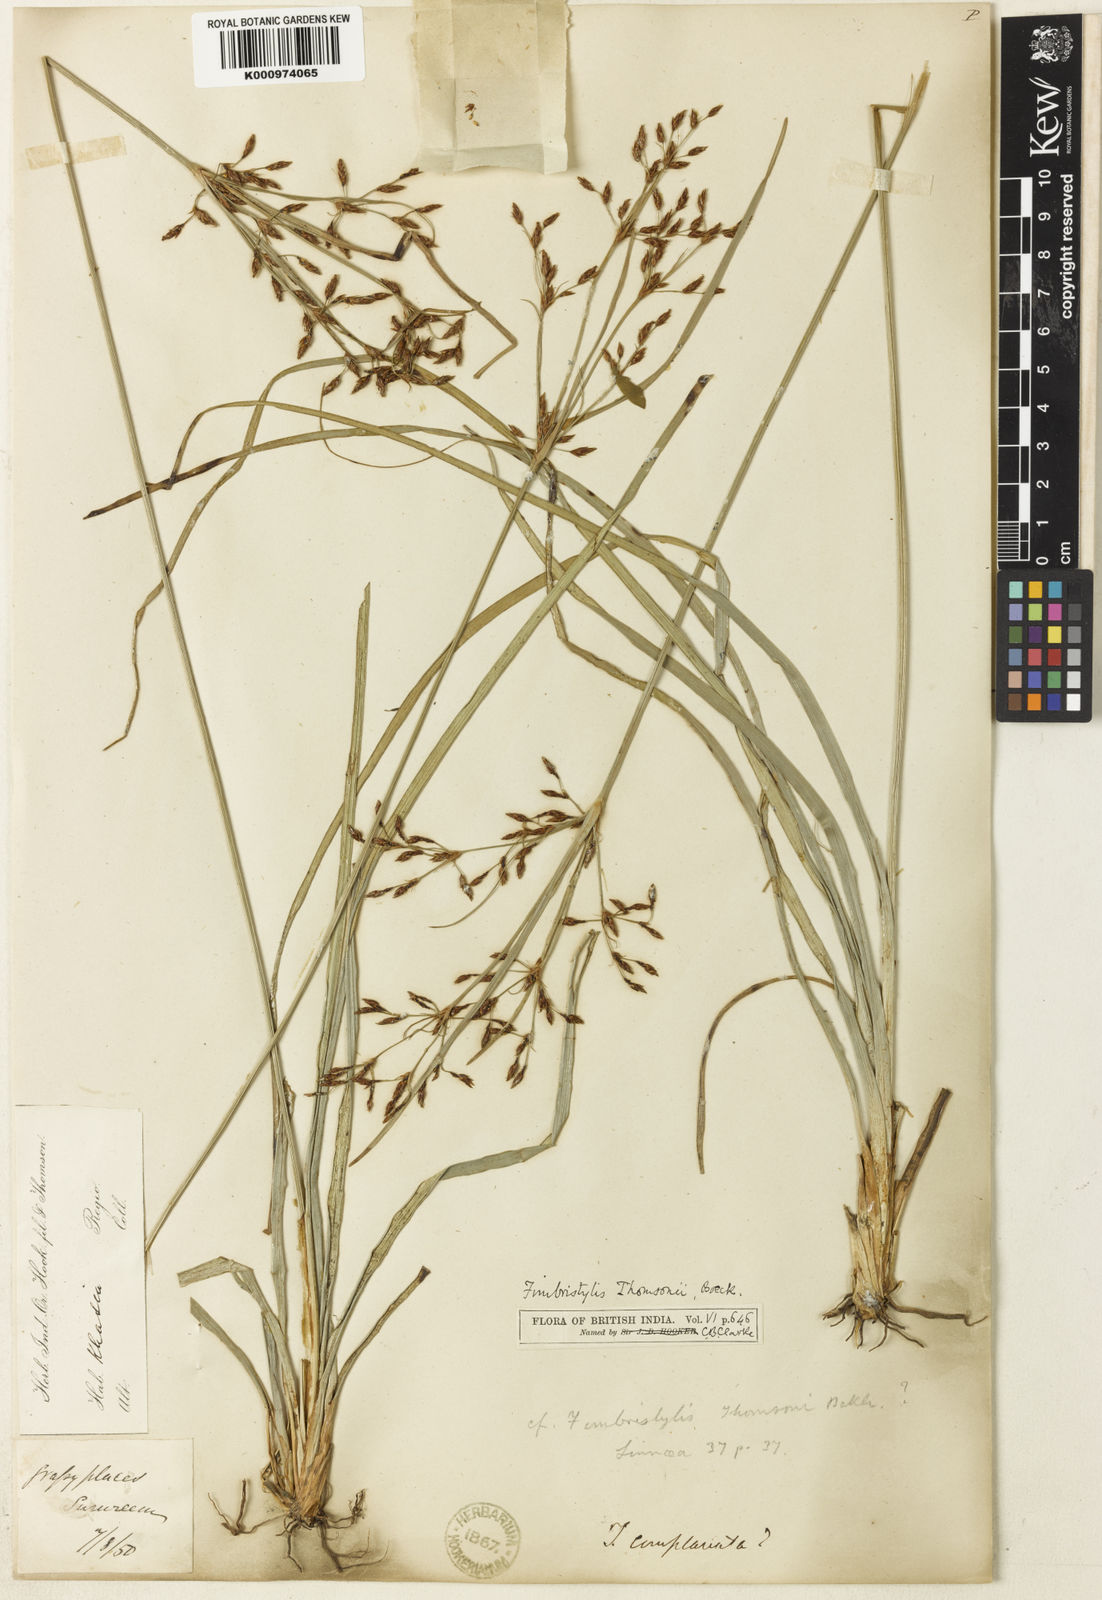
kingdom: Plantae
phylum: Tracheophyta
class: Liliopsida
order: Poales
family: Cyperaceae
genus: Fimbristylis
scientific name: Fimbristylis thomsonii
